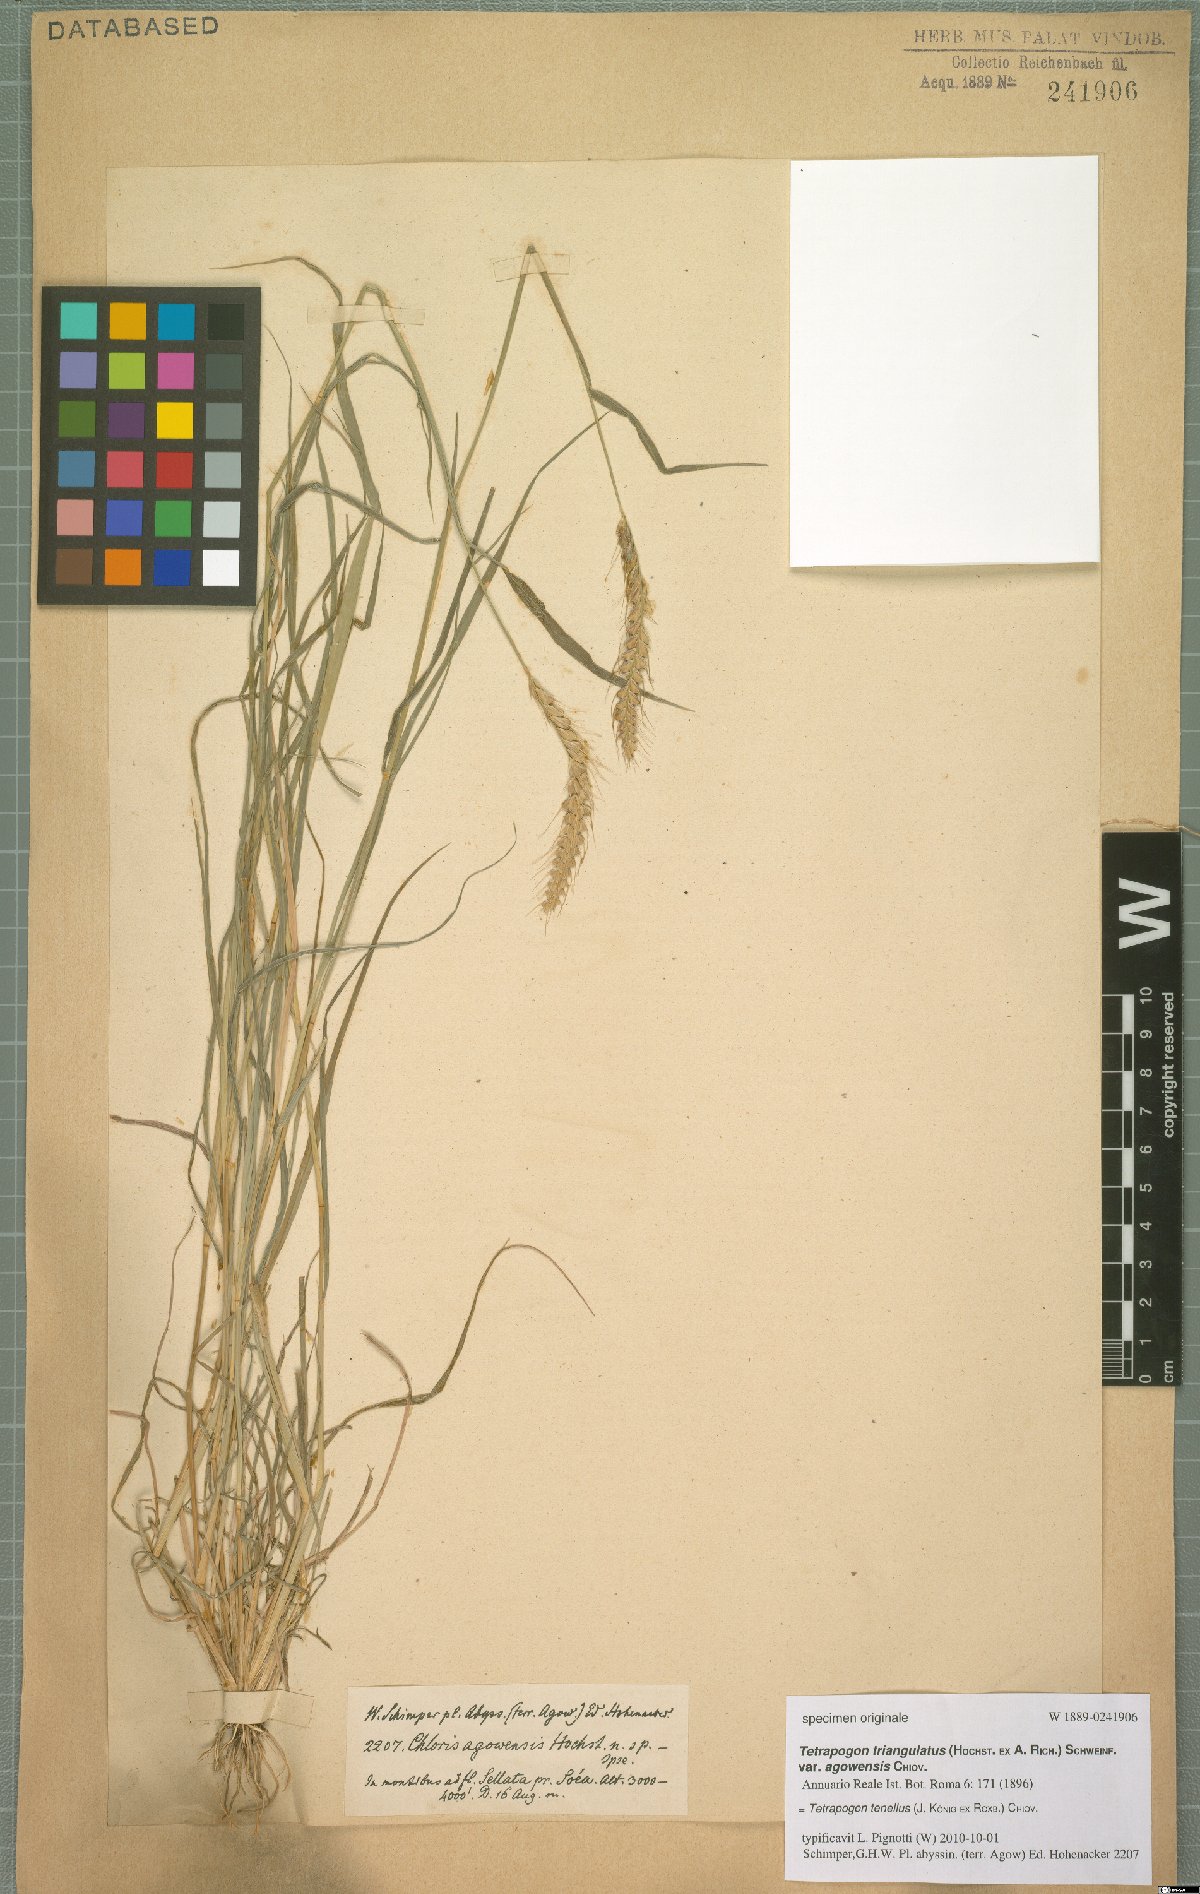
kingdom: Plantae
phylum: Tracheophyta
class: Liliopsida
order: Poales
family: Poaceae
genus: Tetrapogon
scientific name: Tetrapogon tenellus
